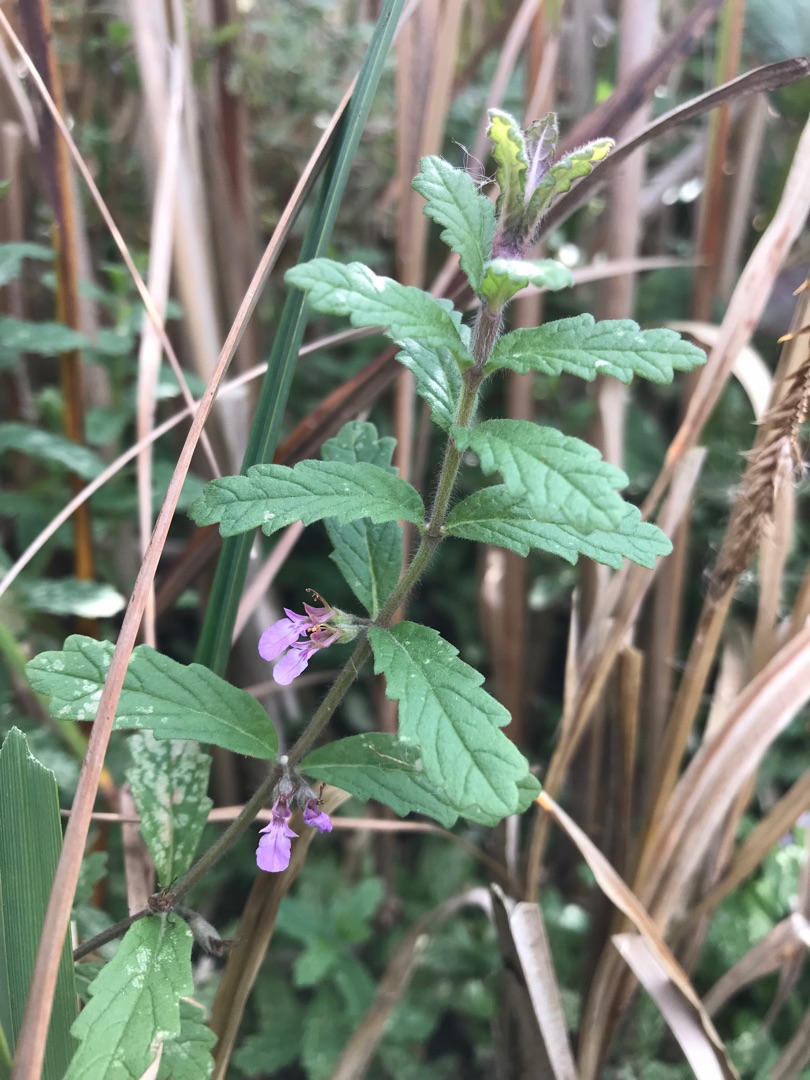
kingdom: Plantae
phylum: Tracheophyta
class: Magnoliopsida
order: Lamiales
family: Lamiaceae
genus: Teucrium
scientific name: Teucrium scordium
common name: Løgurt
